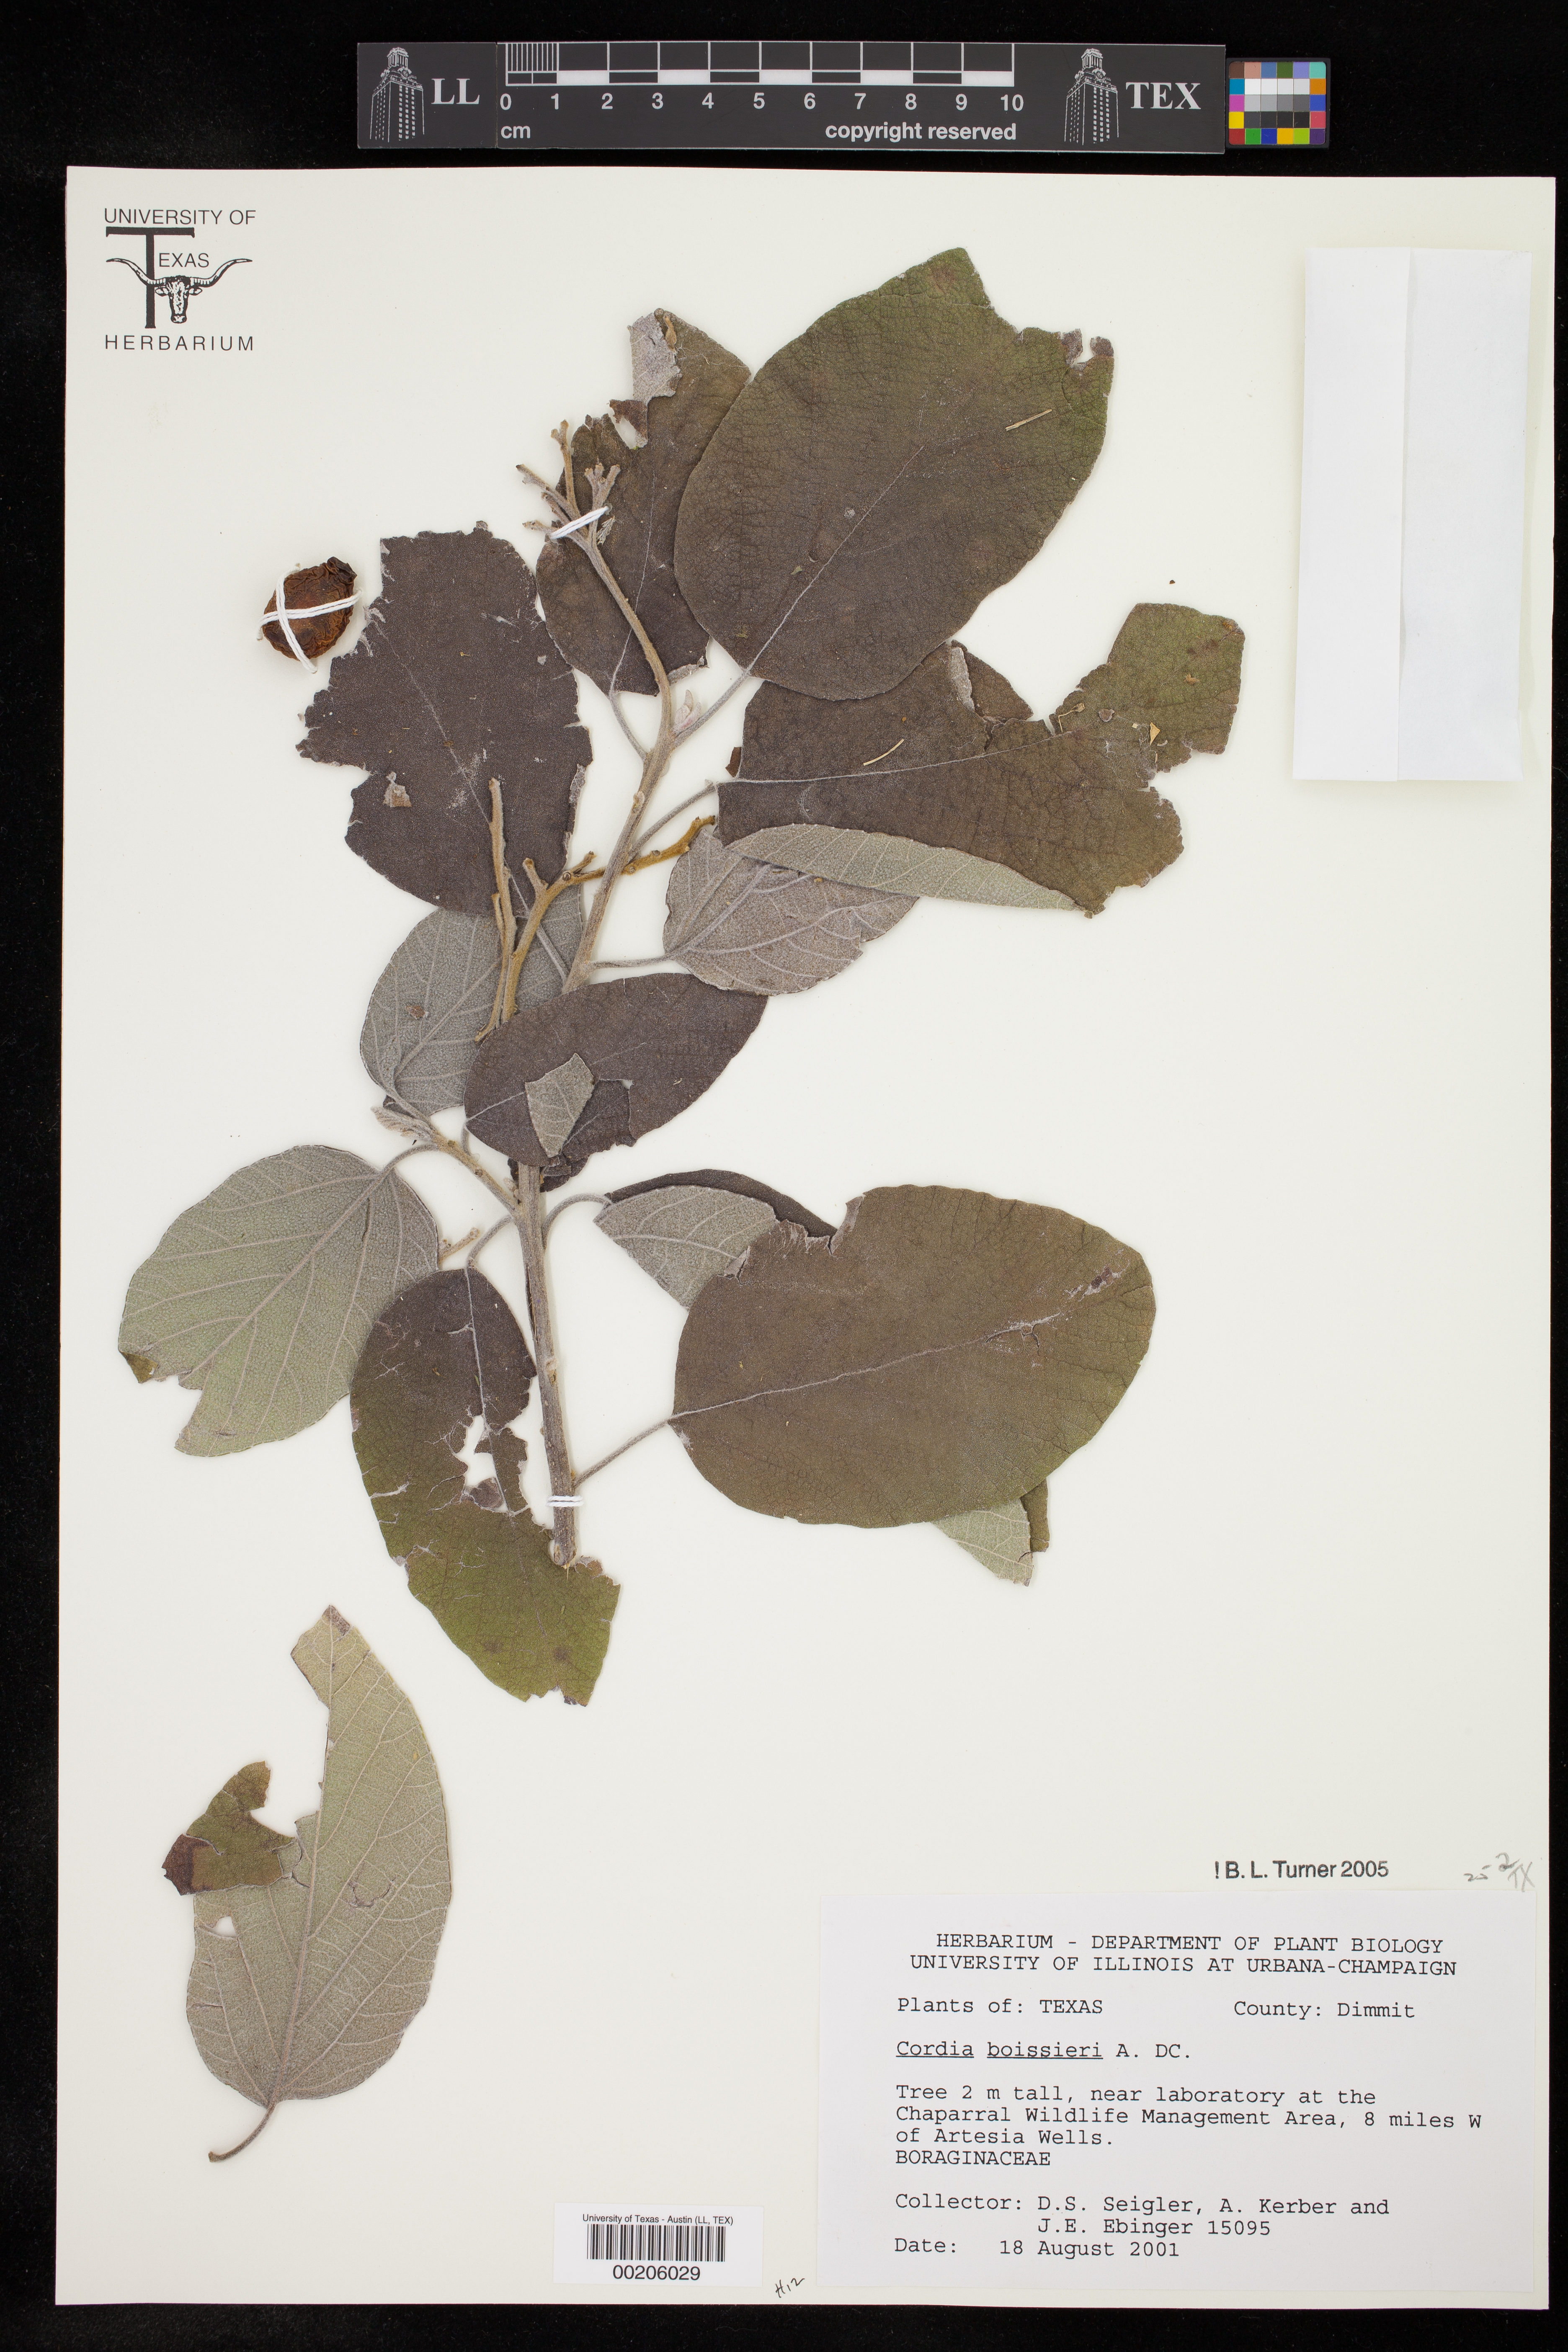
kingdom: Plantae
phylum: Tracheophyta
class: Magnoliopsida
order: Boraginales
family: Cordiaceae
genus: Cordia
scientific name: Cordia boissieri
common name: Mexican-olive
